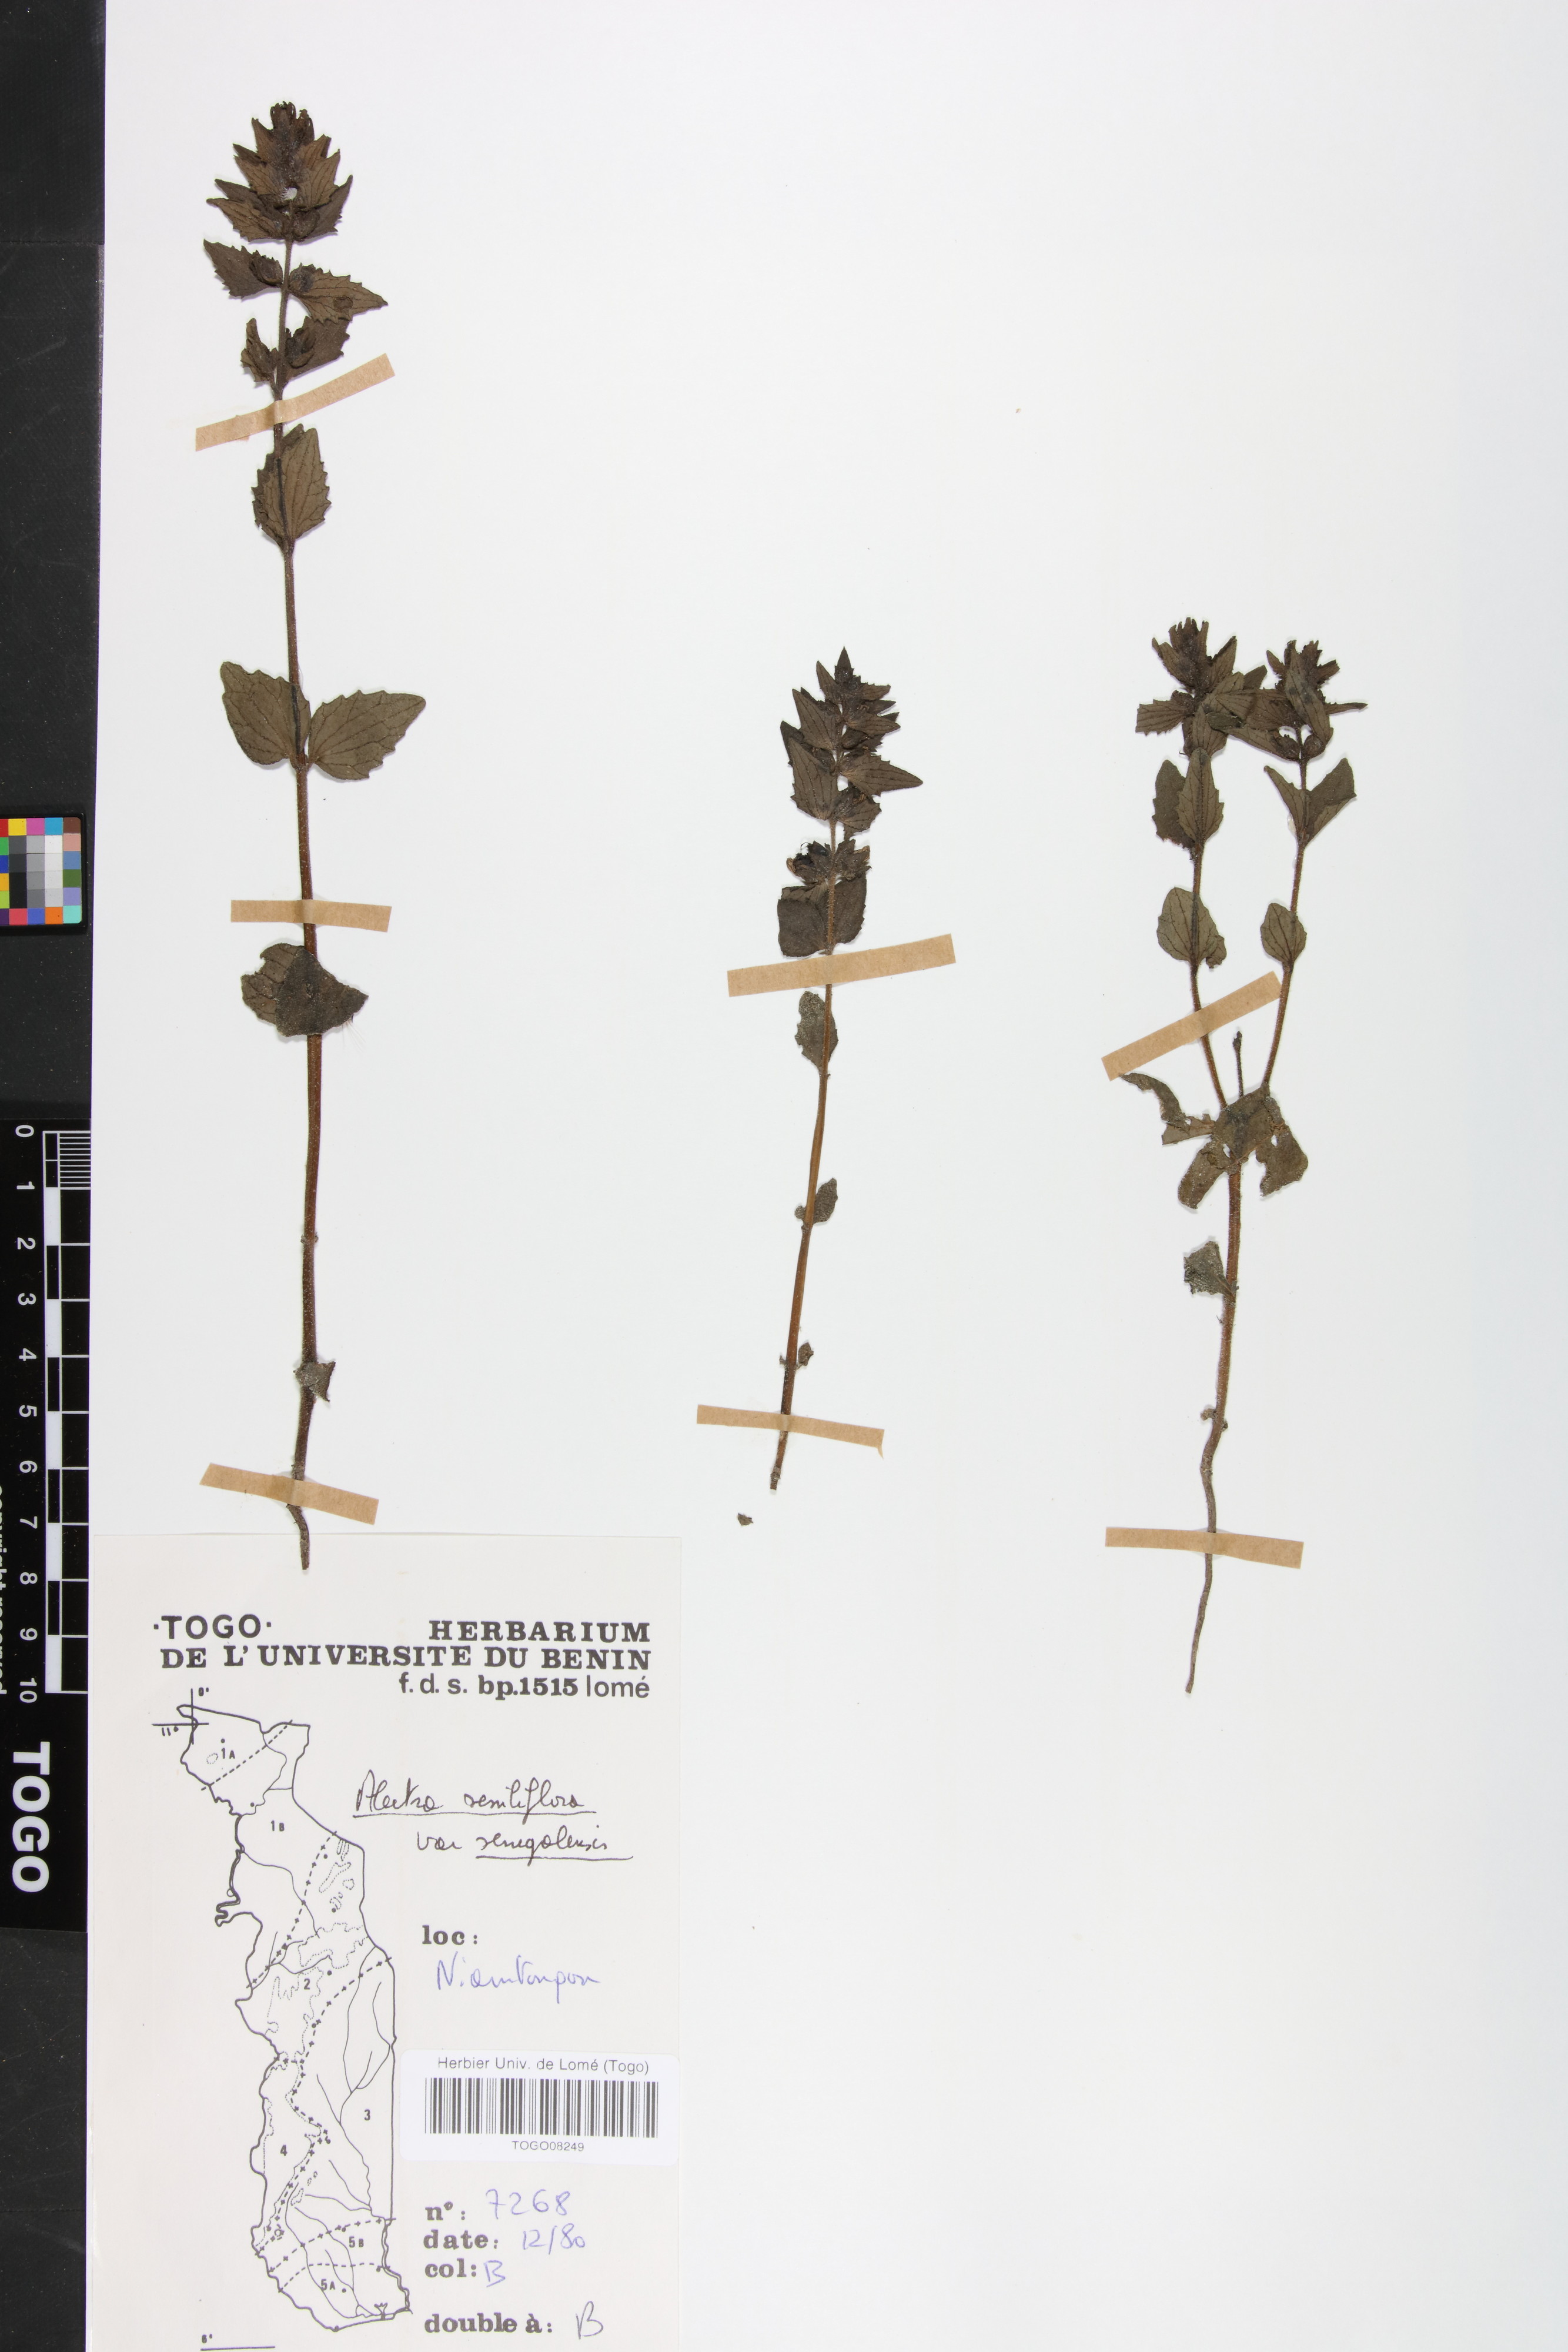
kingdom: Plantae
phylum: Tracheophyta
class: Magnoliopsida
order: Lamiales
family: Orobanchaceae
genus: Alectra
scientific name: Alectra sessiliflora
